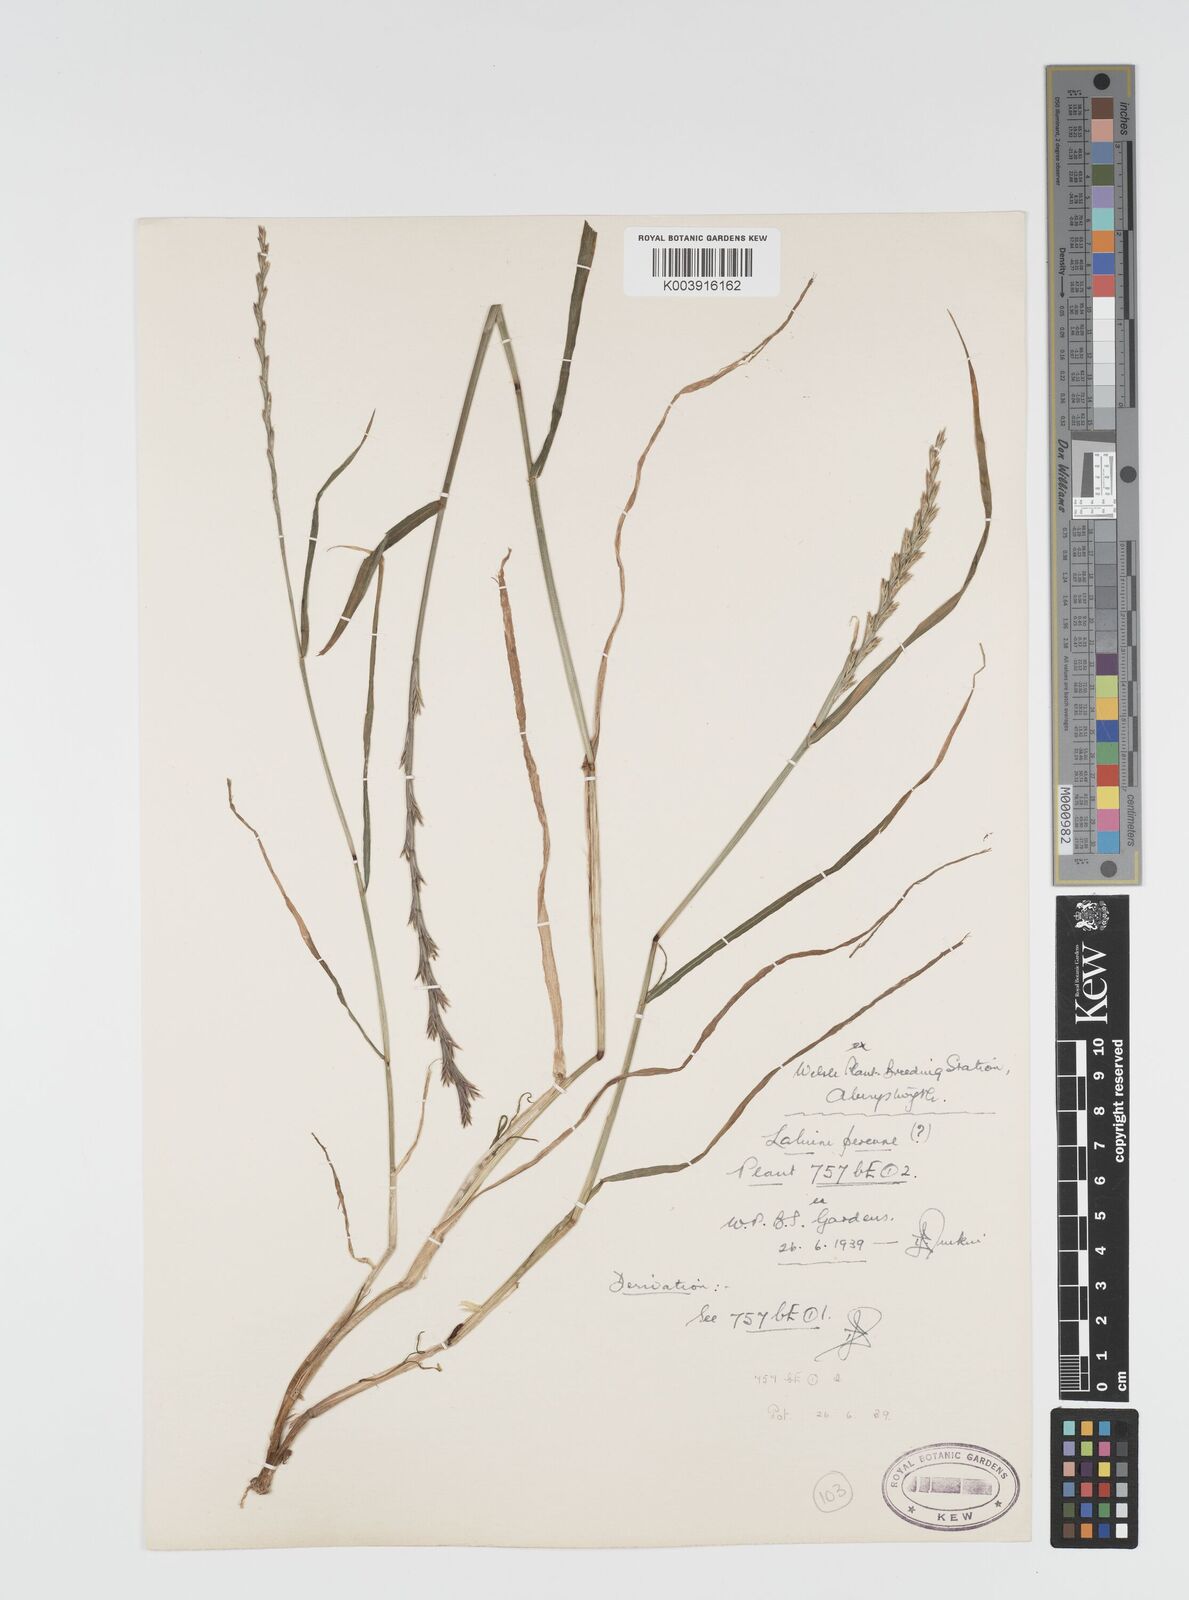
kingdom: Plantae
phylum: Tracheophyta
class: Liliopsida
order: Poales
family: Poaceae
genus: Lolium
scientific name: Lolium rigidum
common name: Wimmera ryegrass
